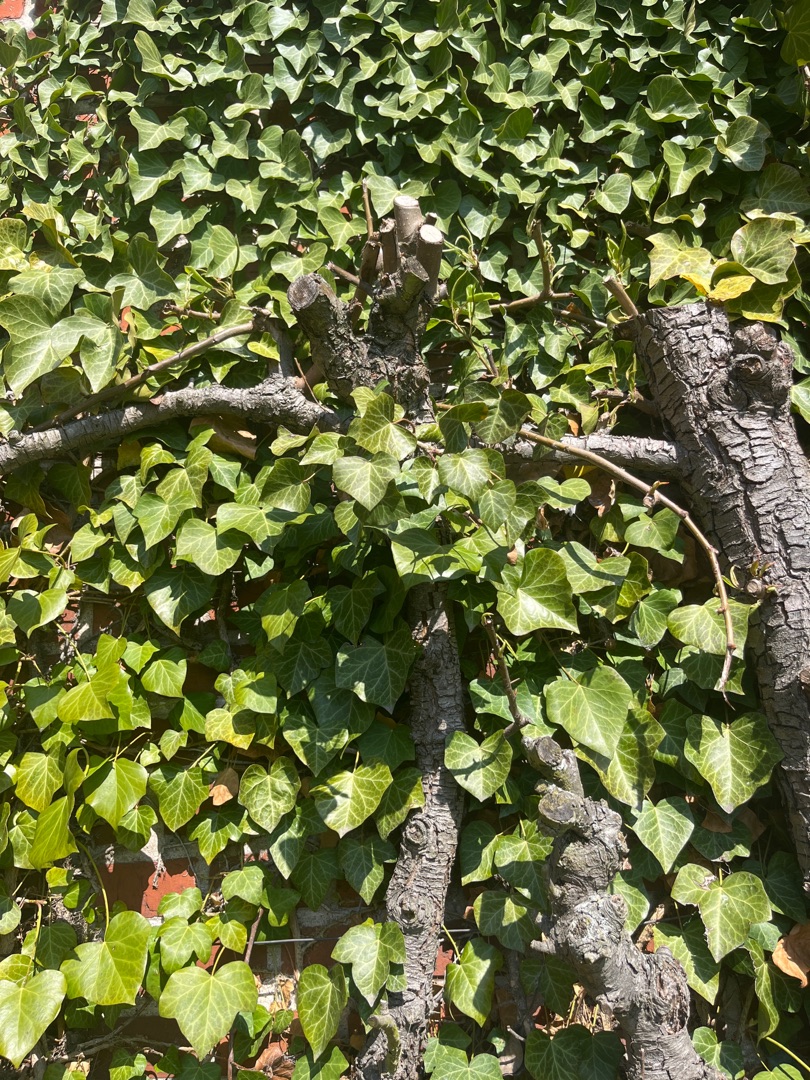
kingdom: Plantae
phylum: Tracheophyta
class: Magnoliopsida
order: Apiales
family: Araliaceae
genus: Hedera
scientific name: Hedera helix
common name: Vedbend
